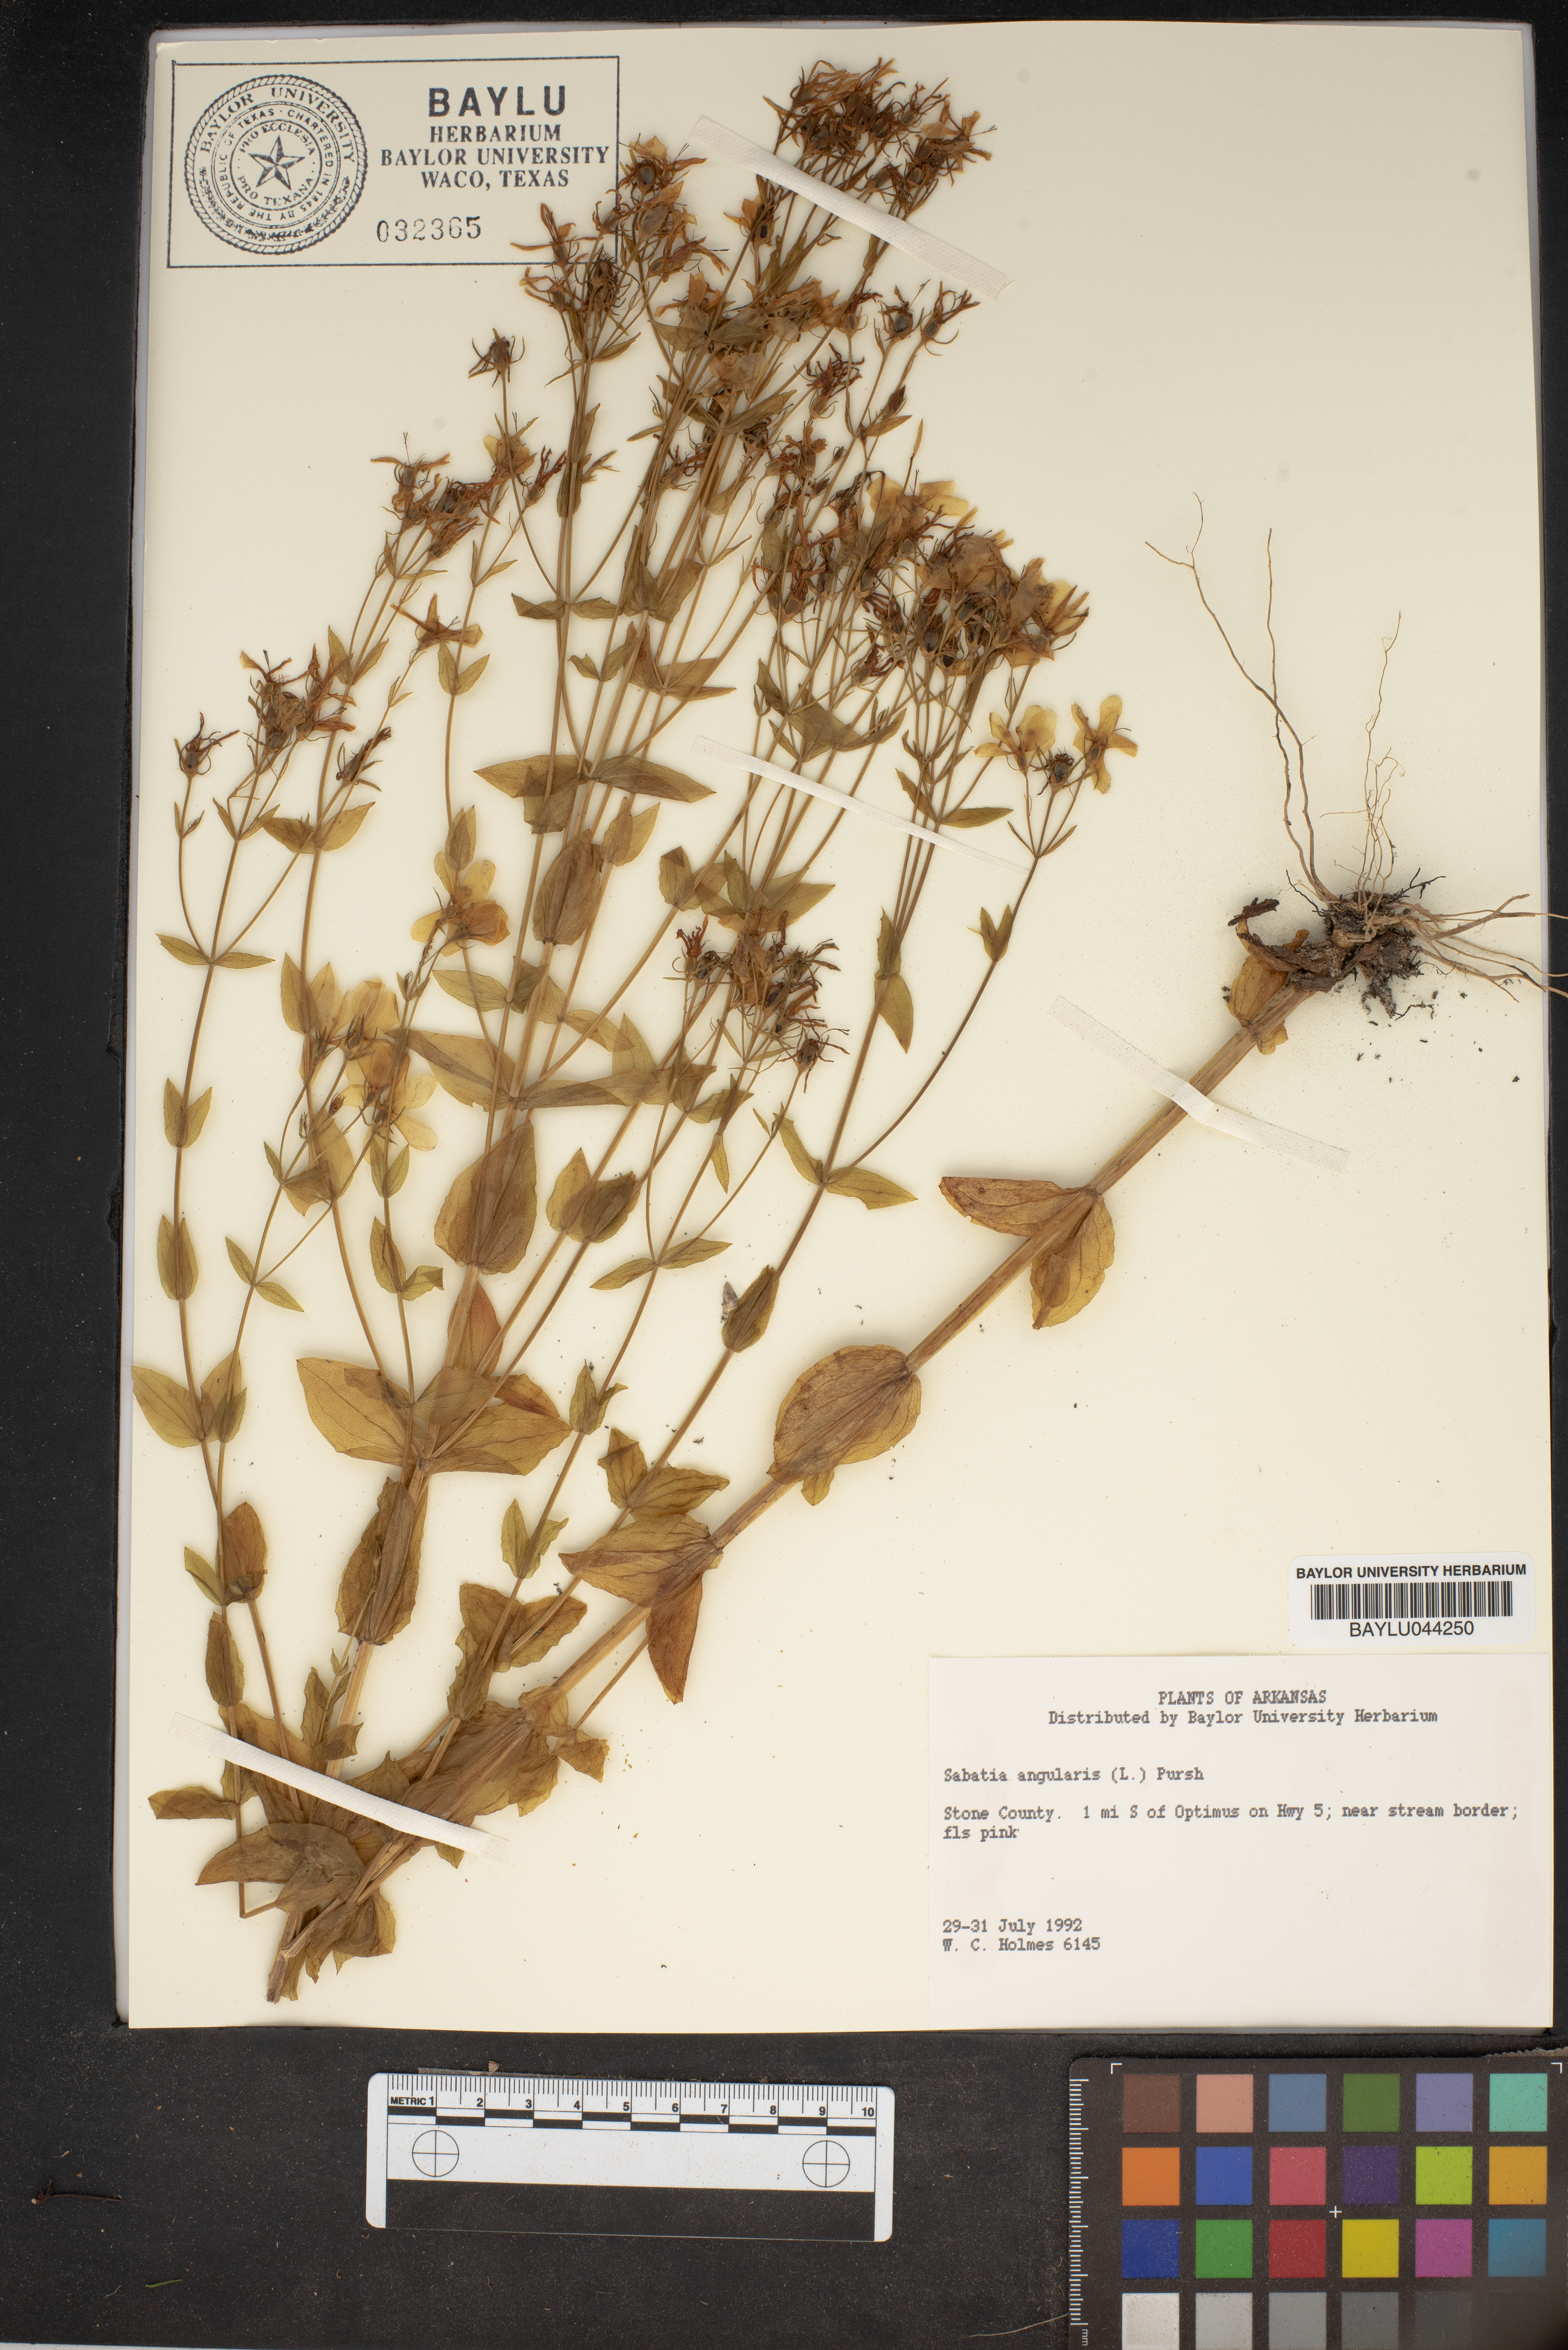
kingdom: Plantae
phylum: Tracheophyta
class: Magnoliopsida
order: Gentianales
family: Gentianaceae
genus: Sabatia
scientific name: Sabatia angularis
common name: Rose-pink
